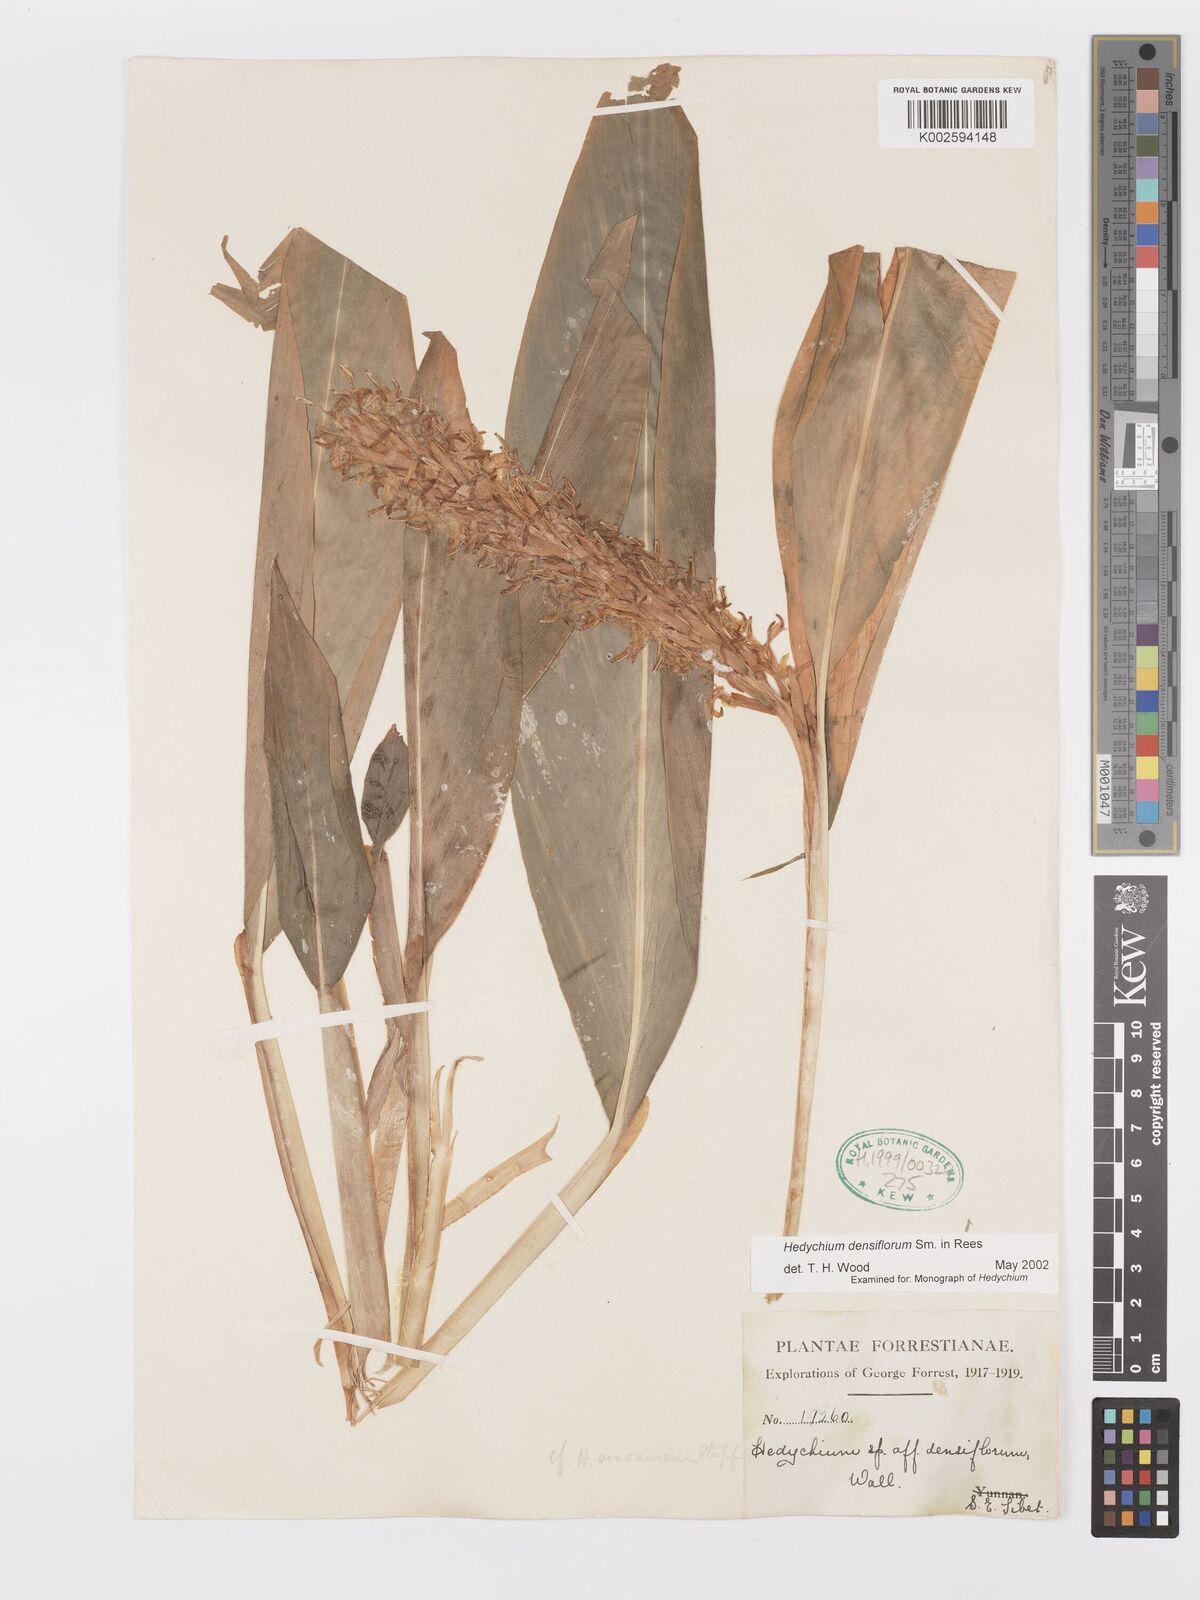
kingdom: Plantae
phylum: Tracheophyta
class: Liliopsida
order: Zingiberales
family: Zingiberaceae
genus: Hedychium
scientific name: Hedychium densiflorum
